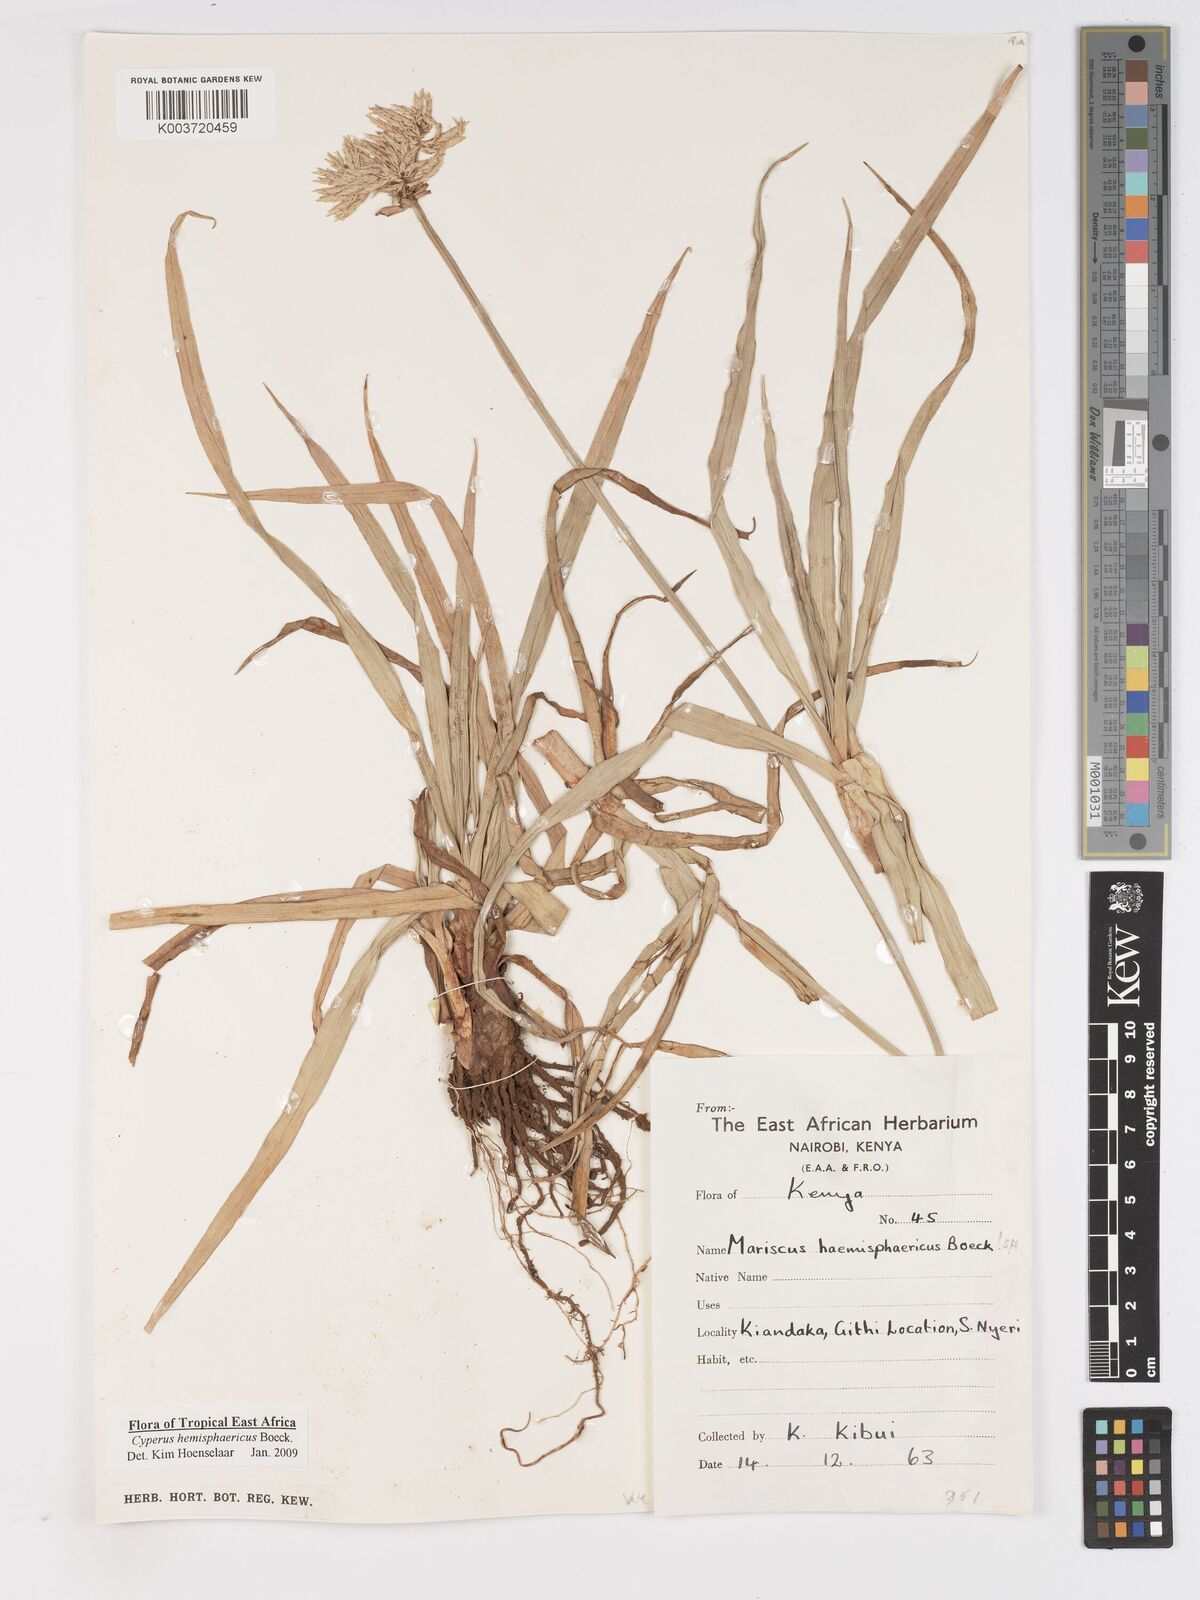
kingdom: Plantae
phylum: Tracheophyta
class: Liliopsida
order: Poales
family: Cyperaceae
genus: Cyperus
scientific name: Cyperus hemisphaericus
